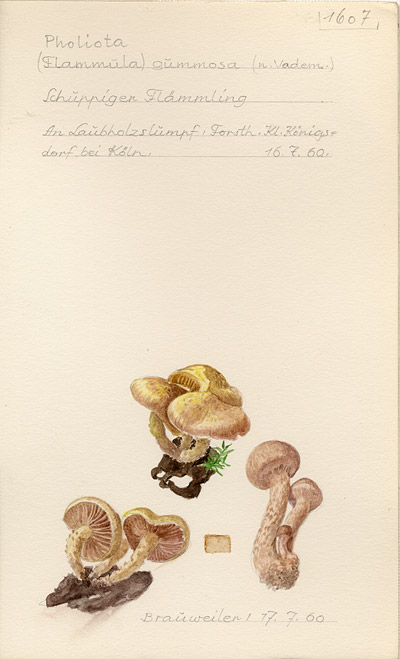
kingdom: Fungi
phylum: Basidiomycota
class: Agaricomycetes
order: Agaricales
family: Strophariaceae
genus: Pholiota
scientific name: Pholiota gummosa
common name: Sticky scalycap
